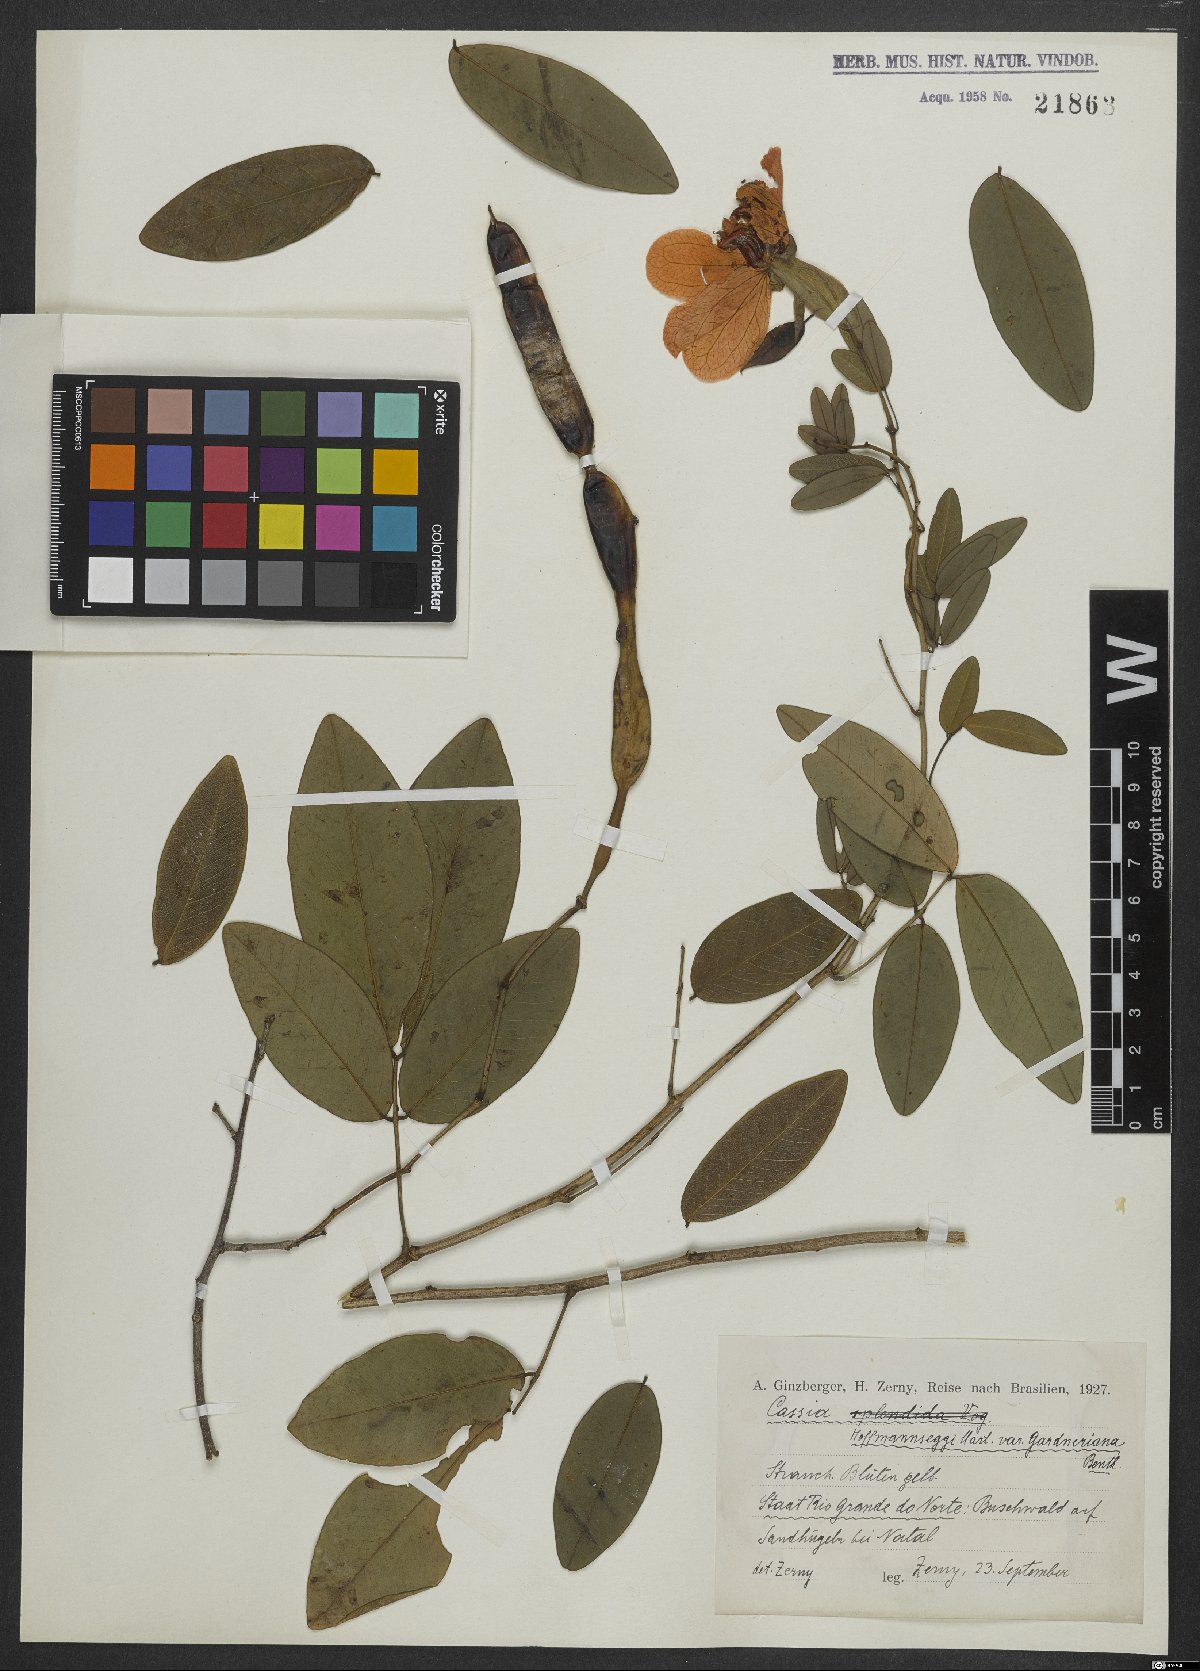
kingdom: Plantae
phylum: Tracheophyta
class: Magnoliopsida
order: Fabales
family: Fabaceae
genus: Senna
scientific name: Senna latifolia
